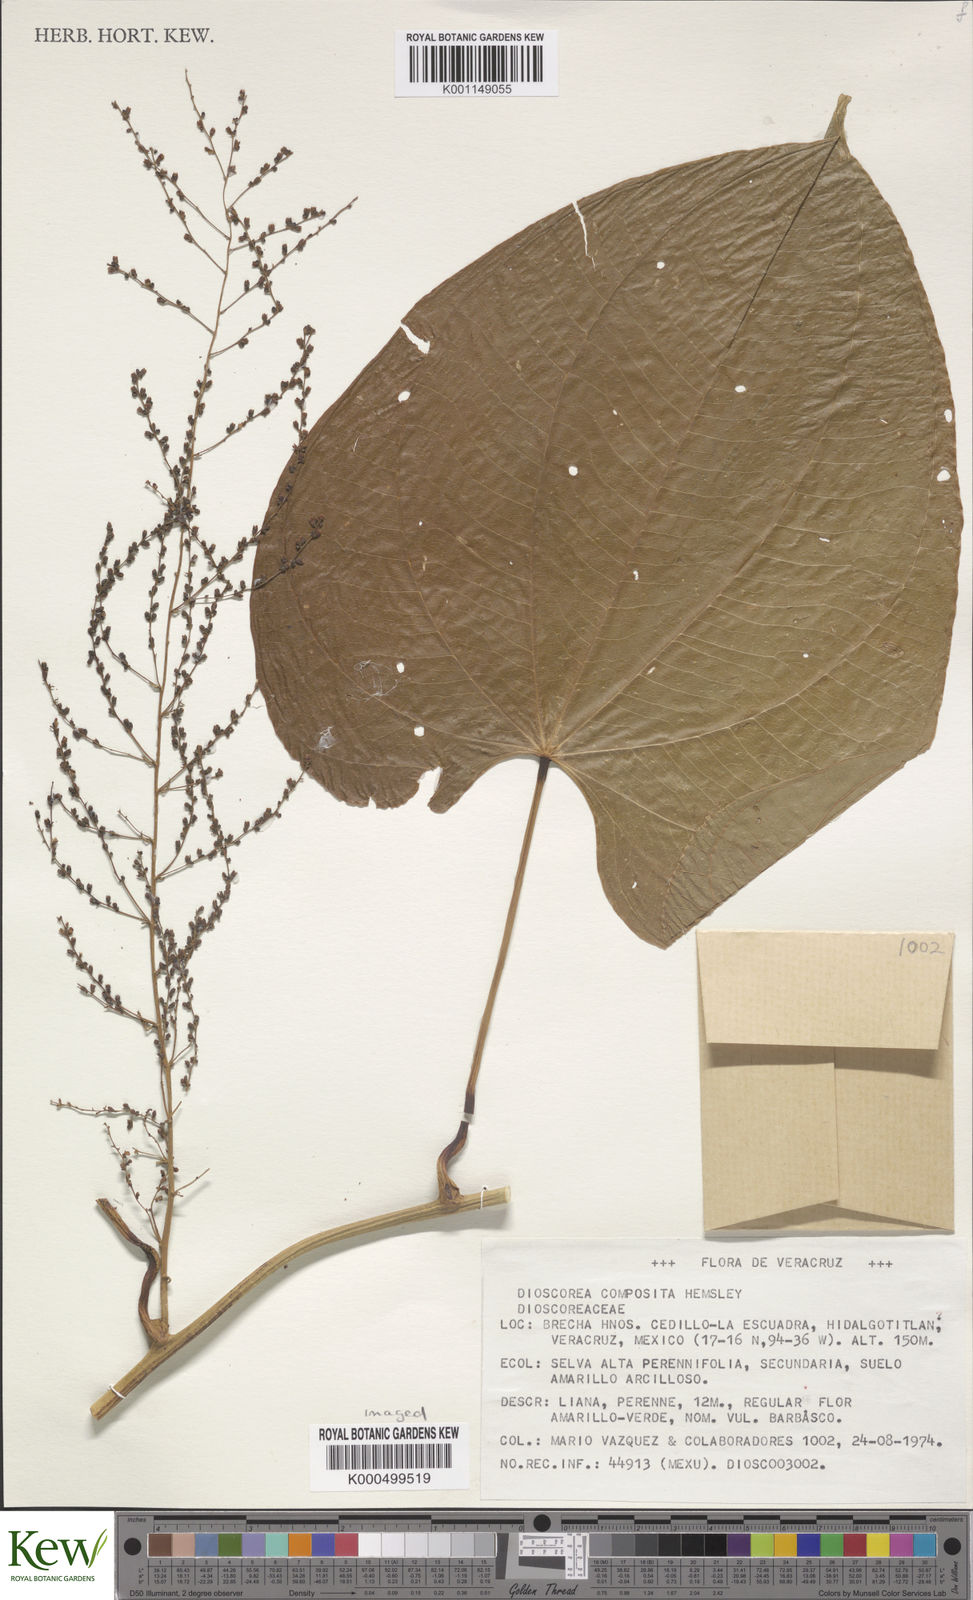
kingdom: Plantae
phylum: Tracheophyta
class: Liliopsida
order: Dioscoreales
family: Dioscoreaceae
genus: Dioscorea
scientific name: Dioscorea composita
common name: Barbasco
